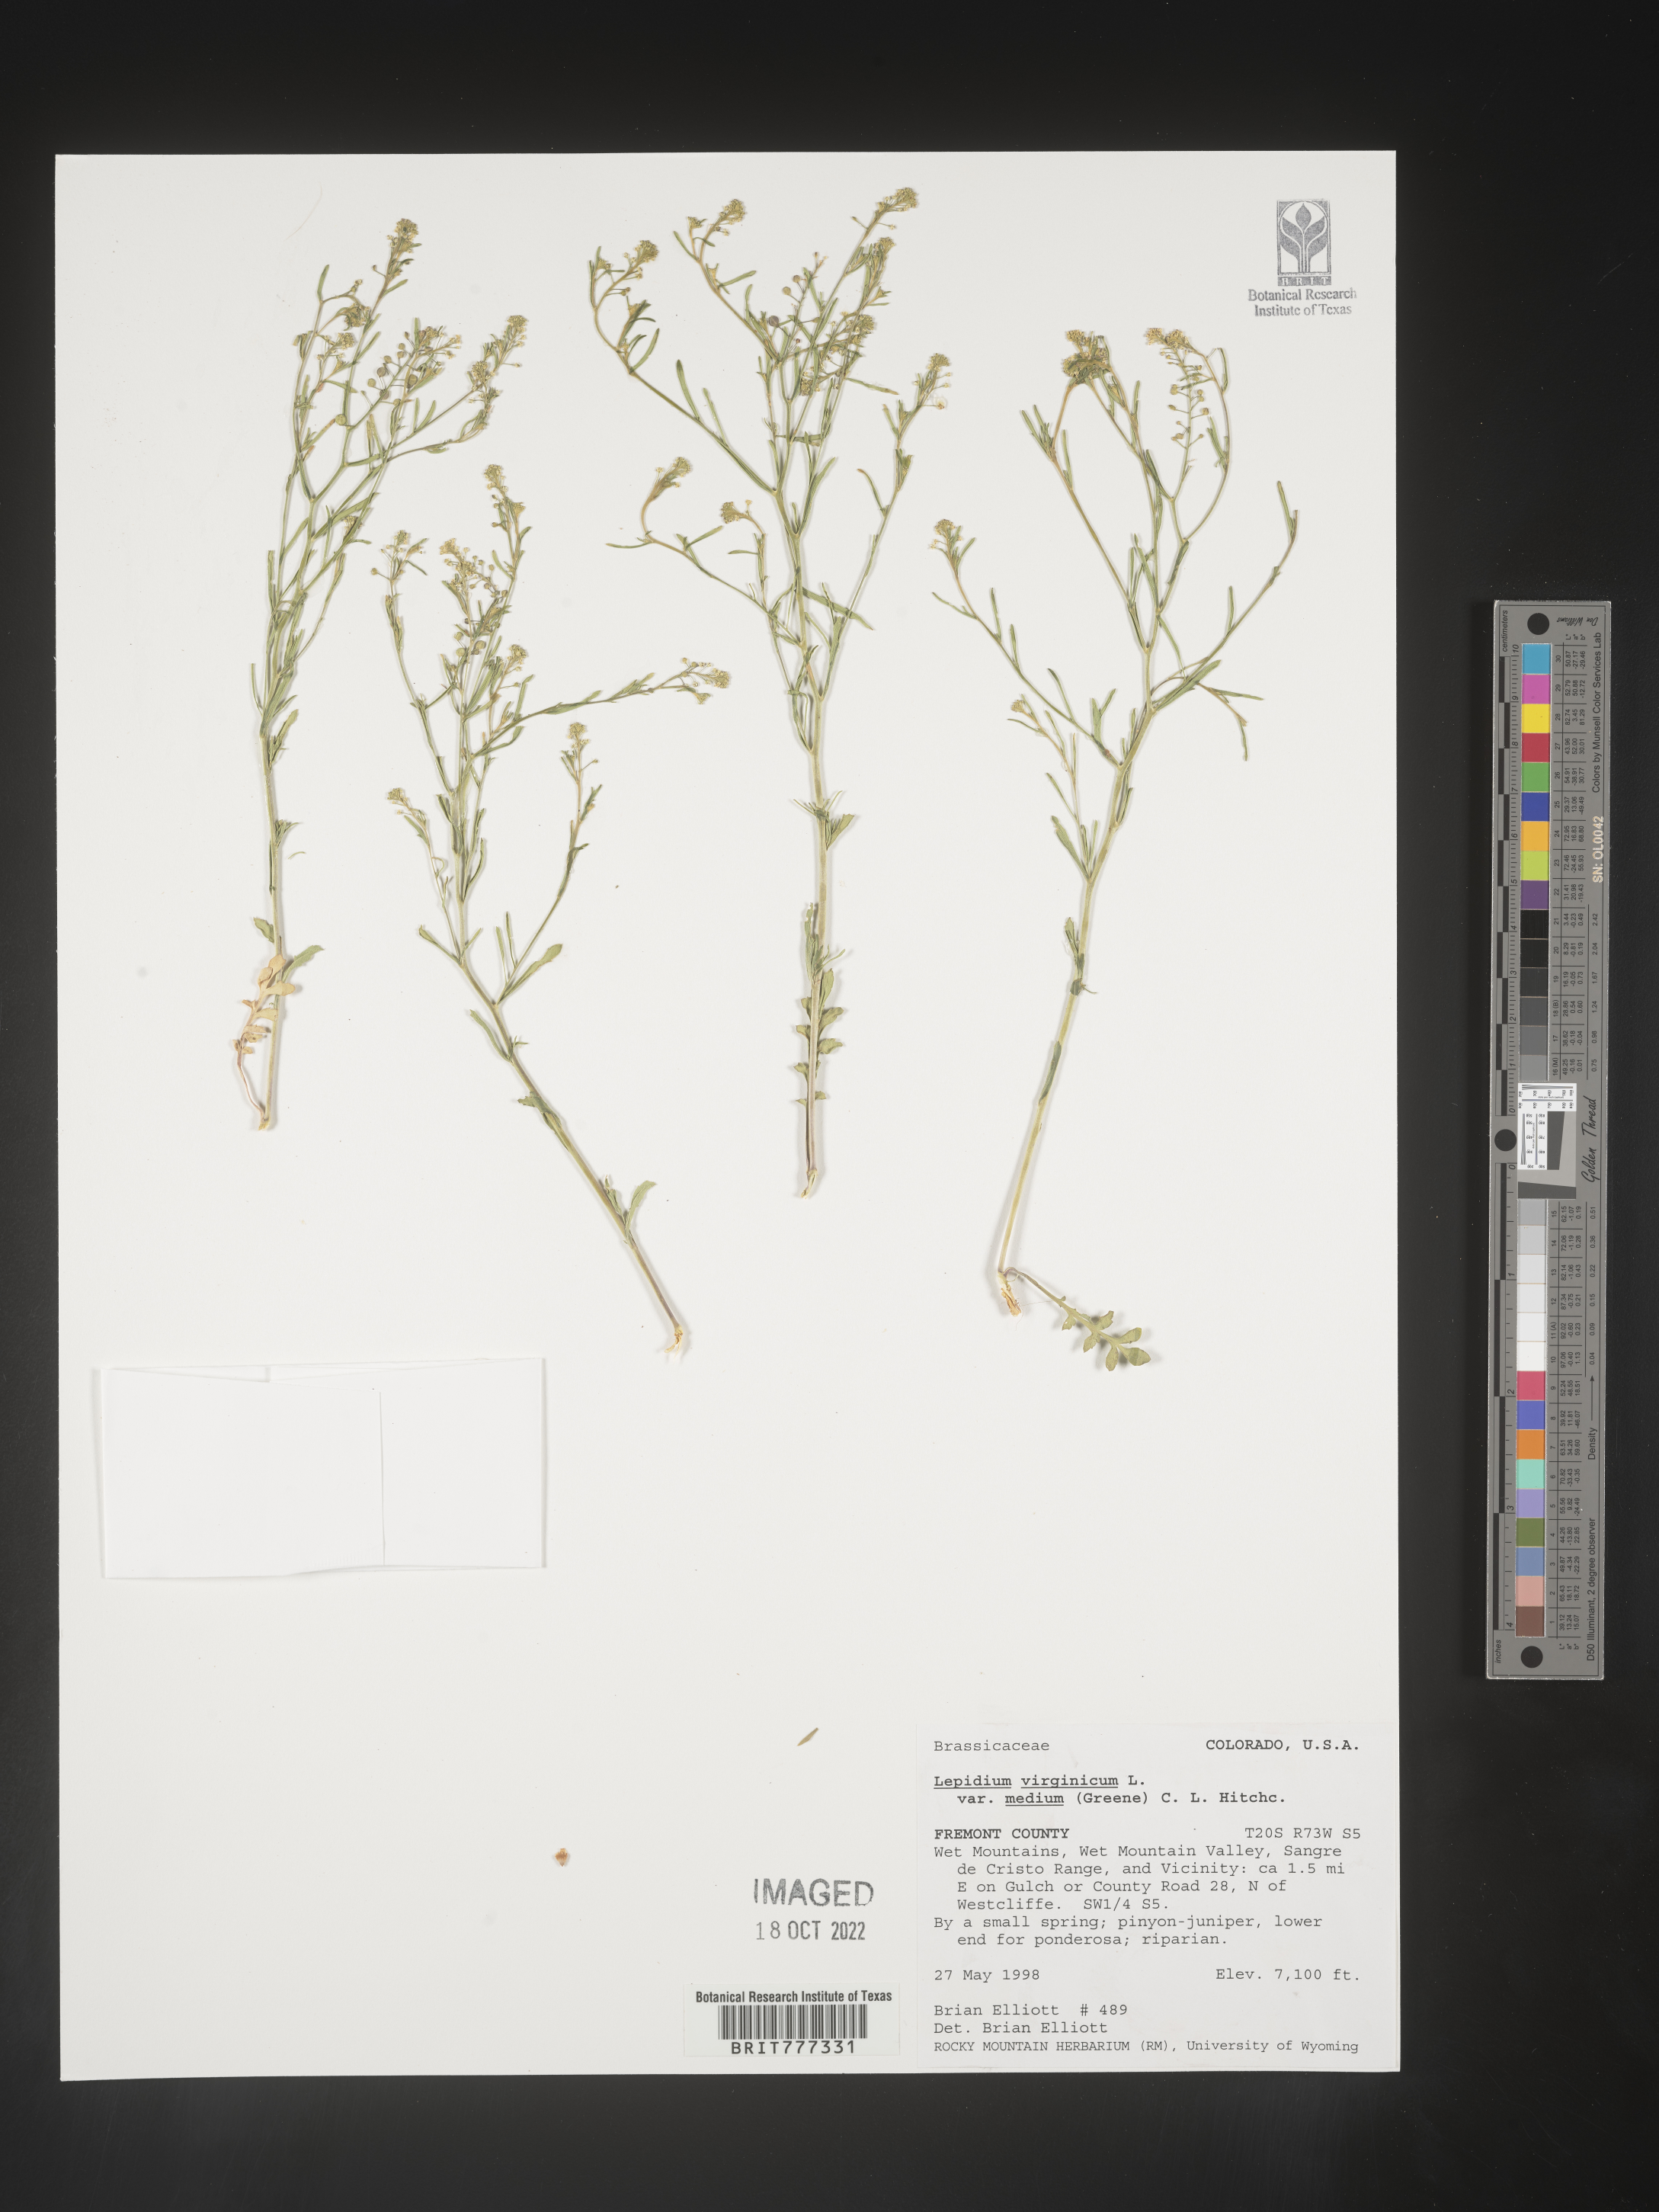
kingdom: Plantae
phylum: Tracheophyta
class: Magnoliopsida
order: Brassicales
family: Brassicaceae
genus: Lepidium
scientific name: Lepidium virginicum
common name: Least pepperwort
